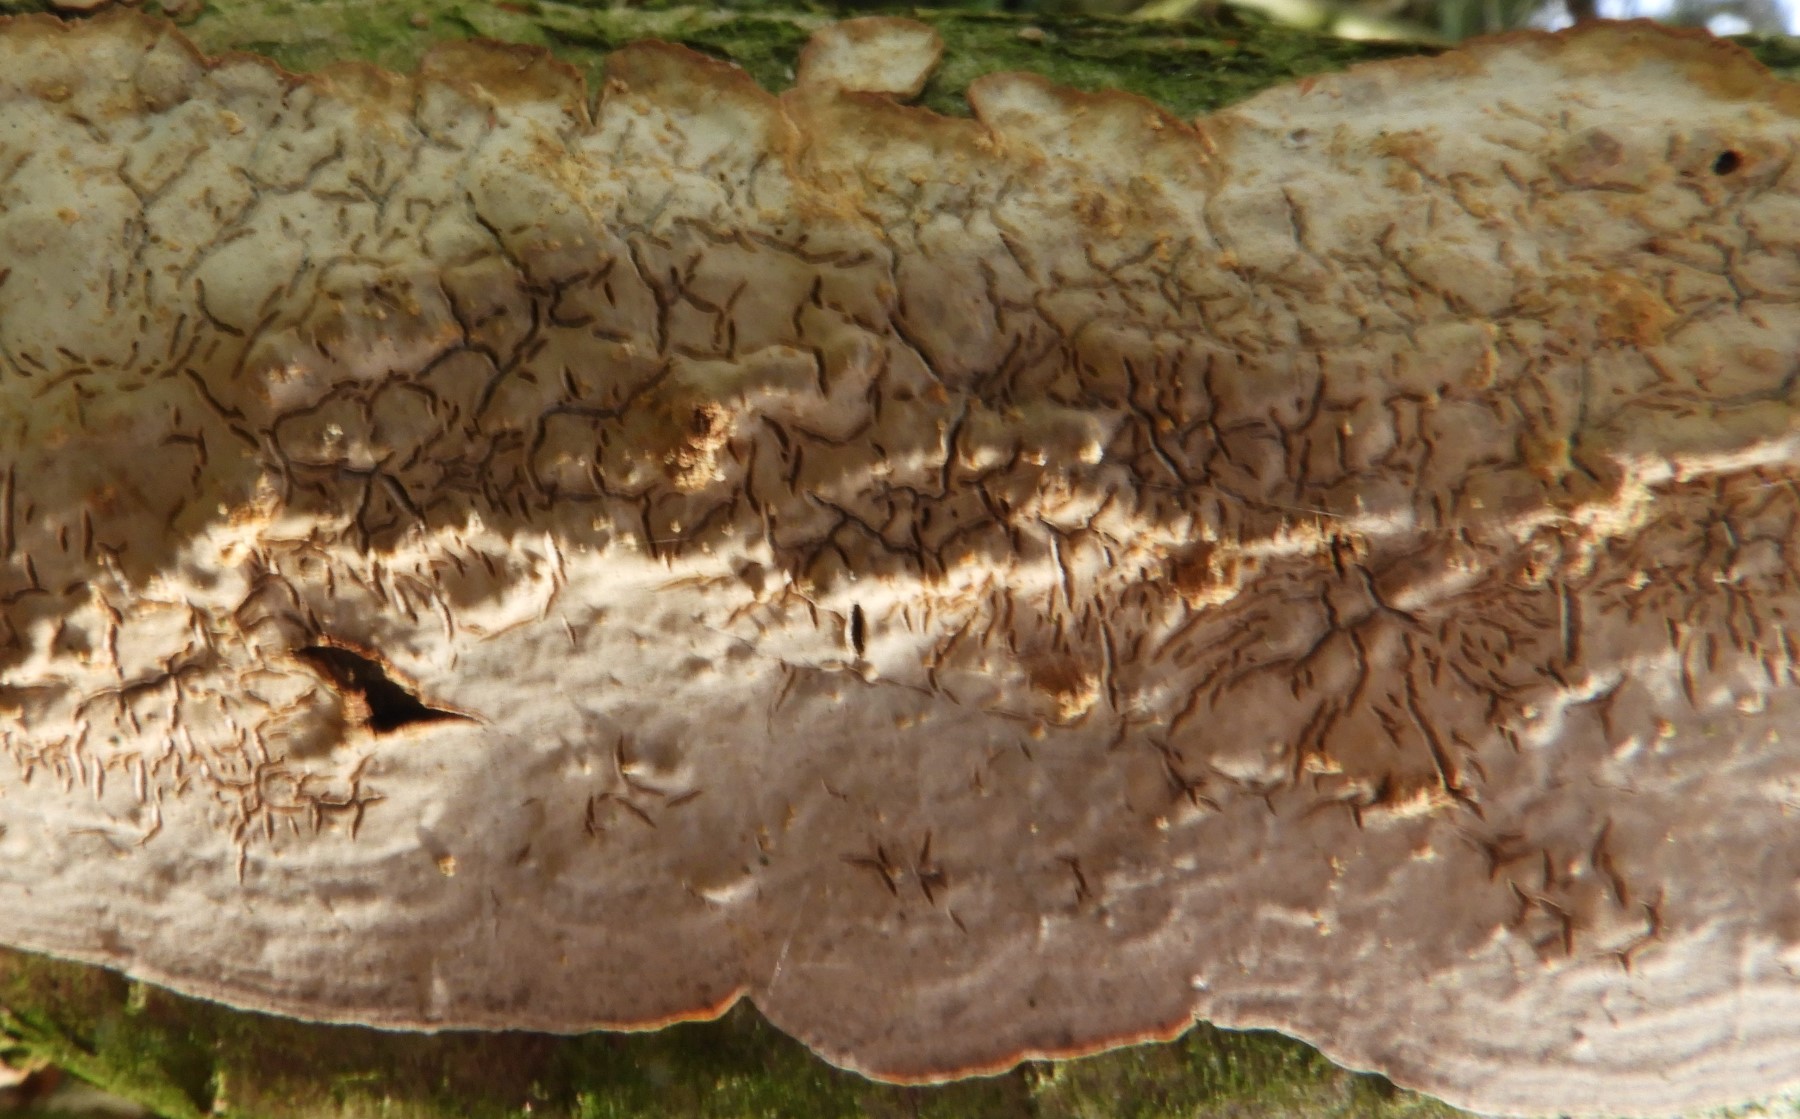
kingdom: Fungi
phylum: Basidiomycota
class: Agaricomycetes
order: Agaricales
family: Physalacriaceae
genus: Cylindrobasidium
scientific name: Cylindrobasidium evolvens
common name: sprækkehinde
